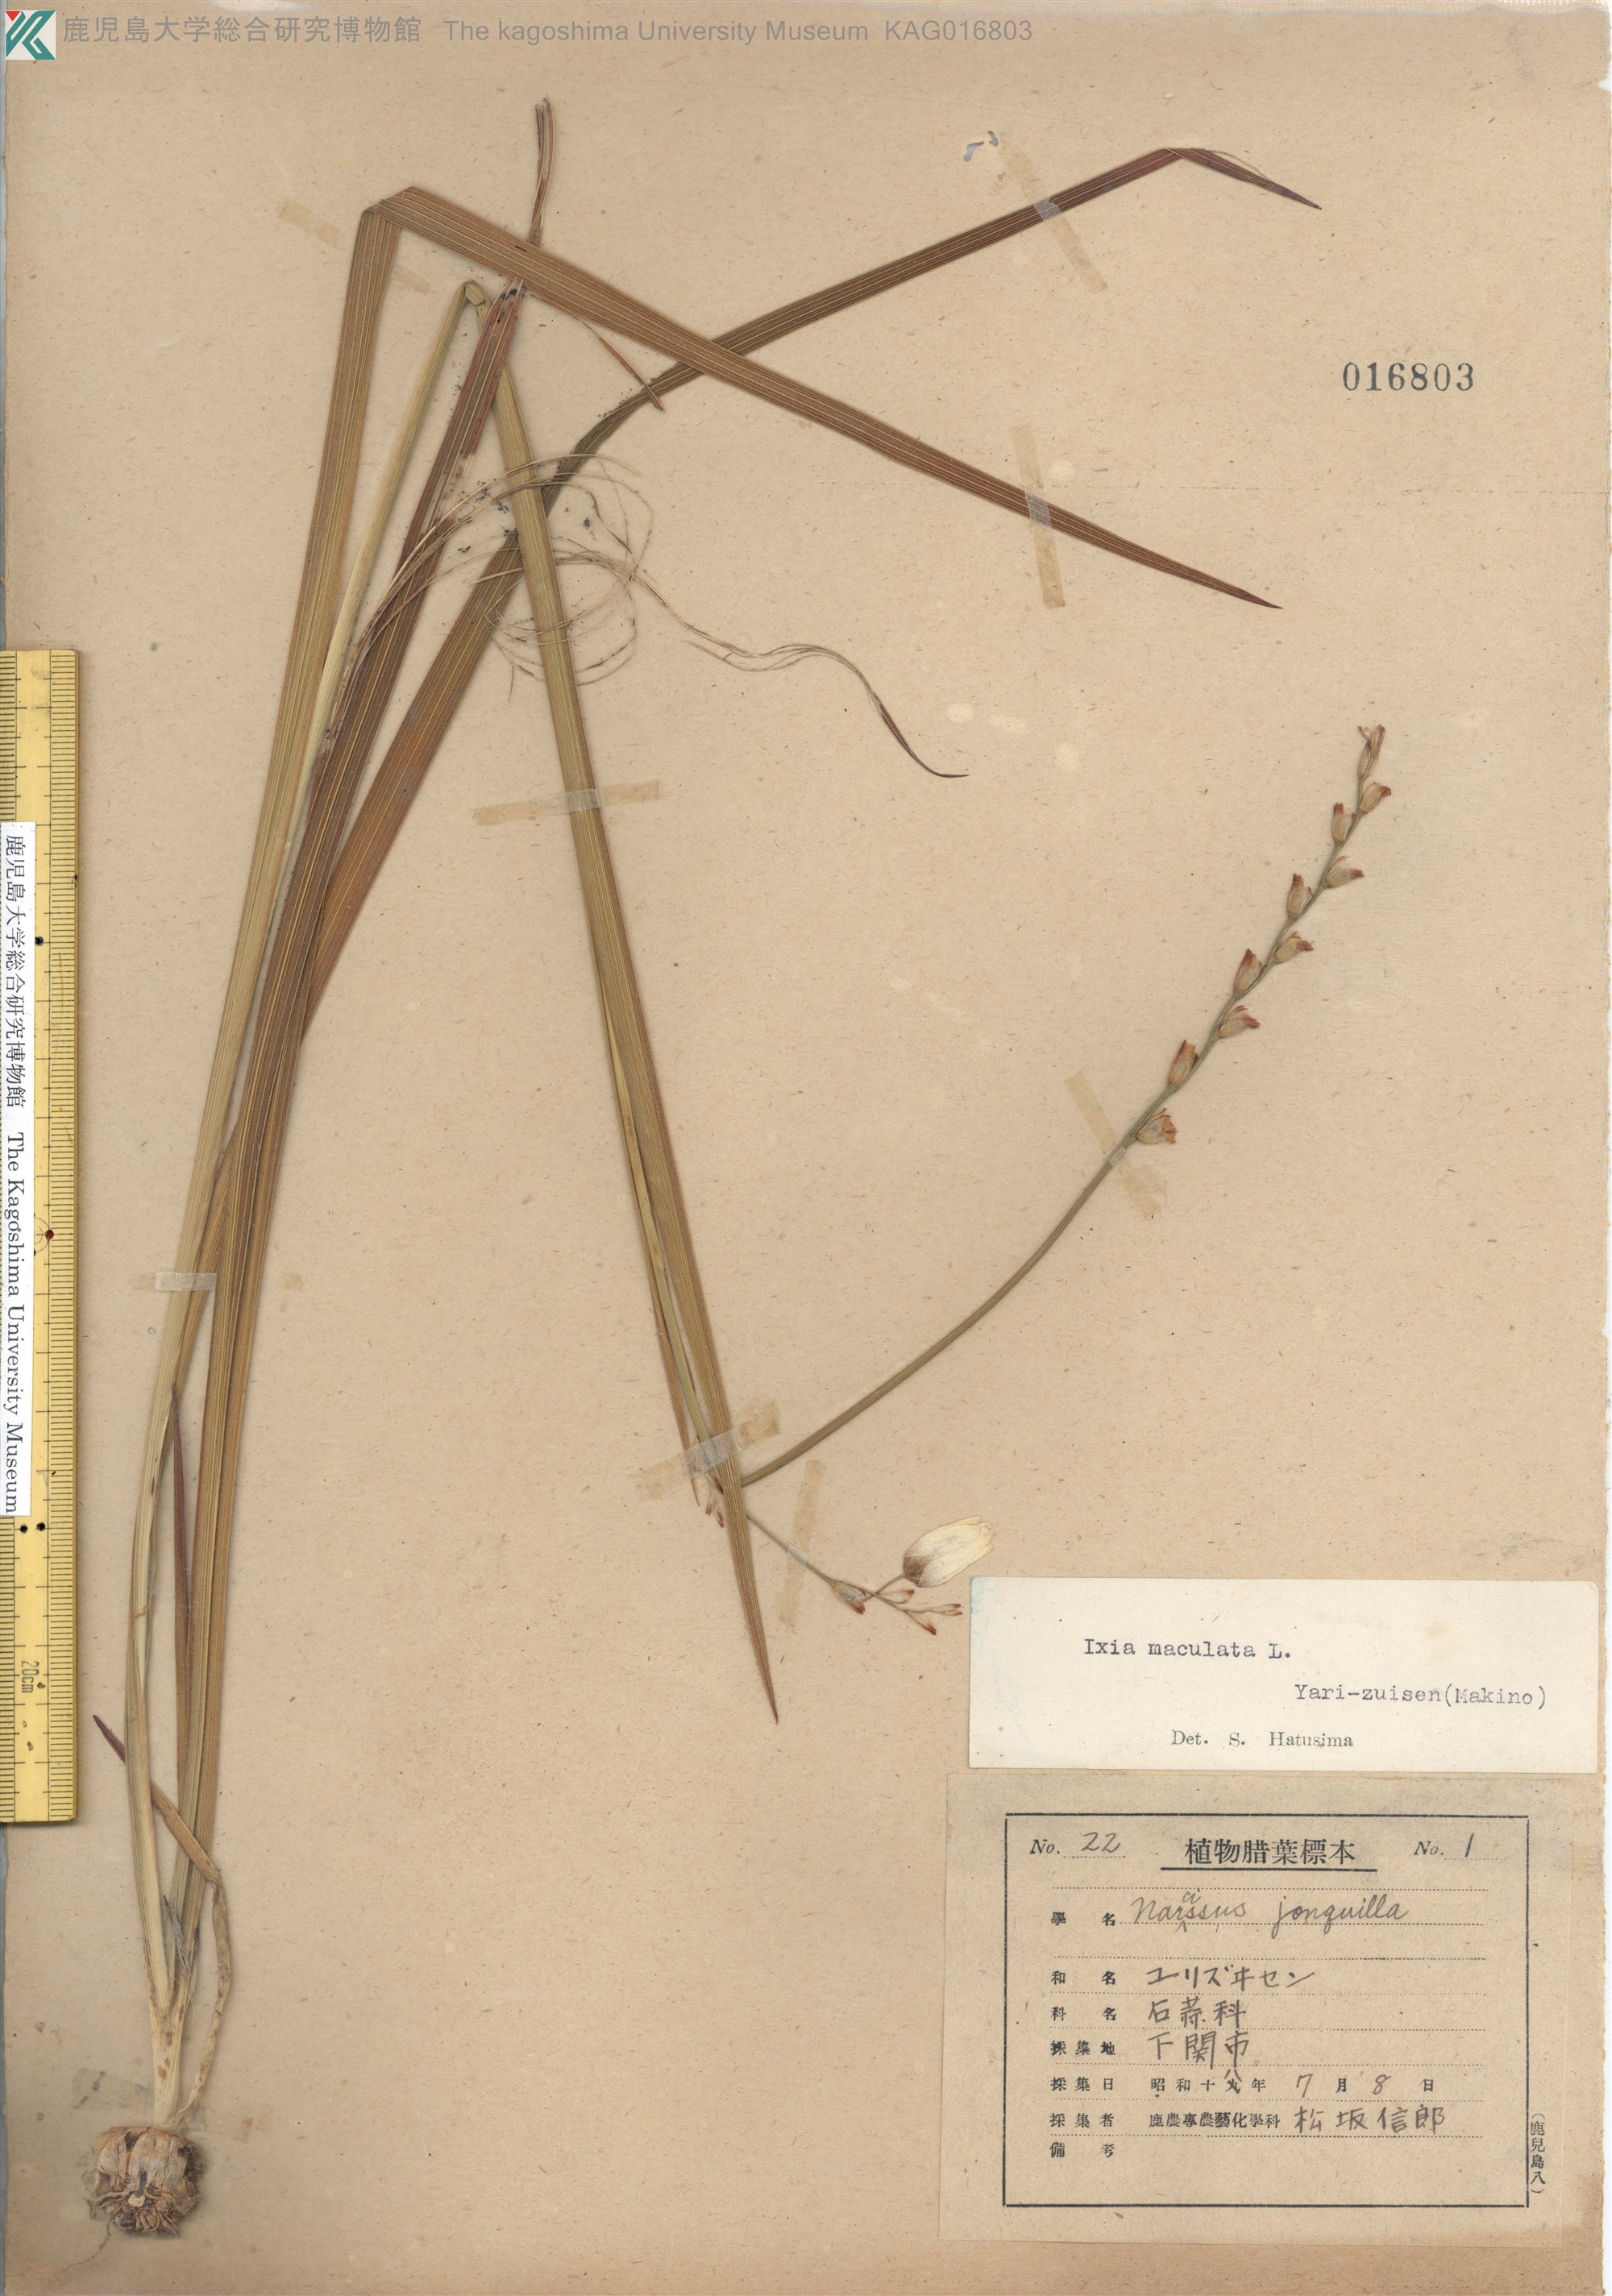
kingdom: Plantae
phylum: Tracheophyta
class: Liliopsida
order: Asparagales
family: Iridaceae
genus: Ixia
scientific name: Ixia maculata
